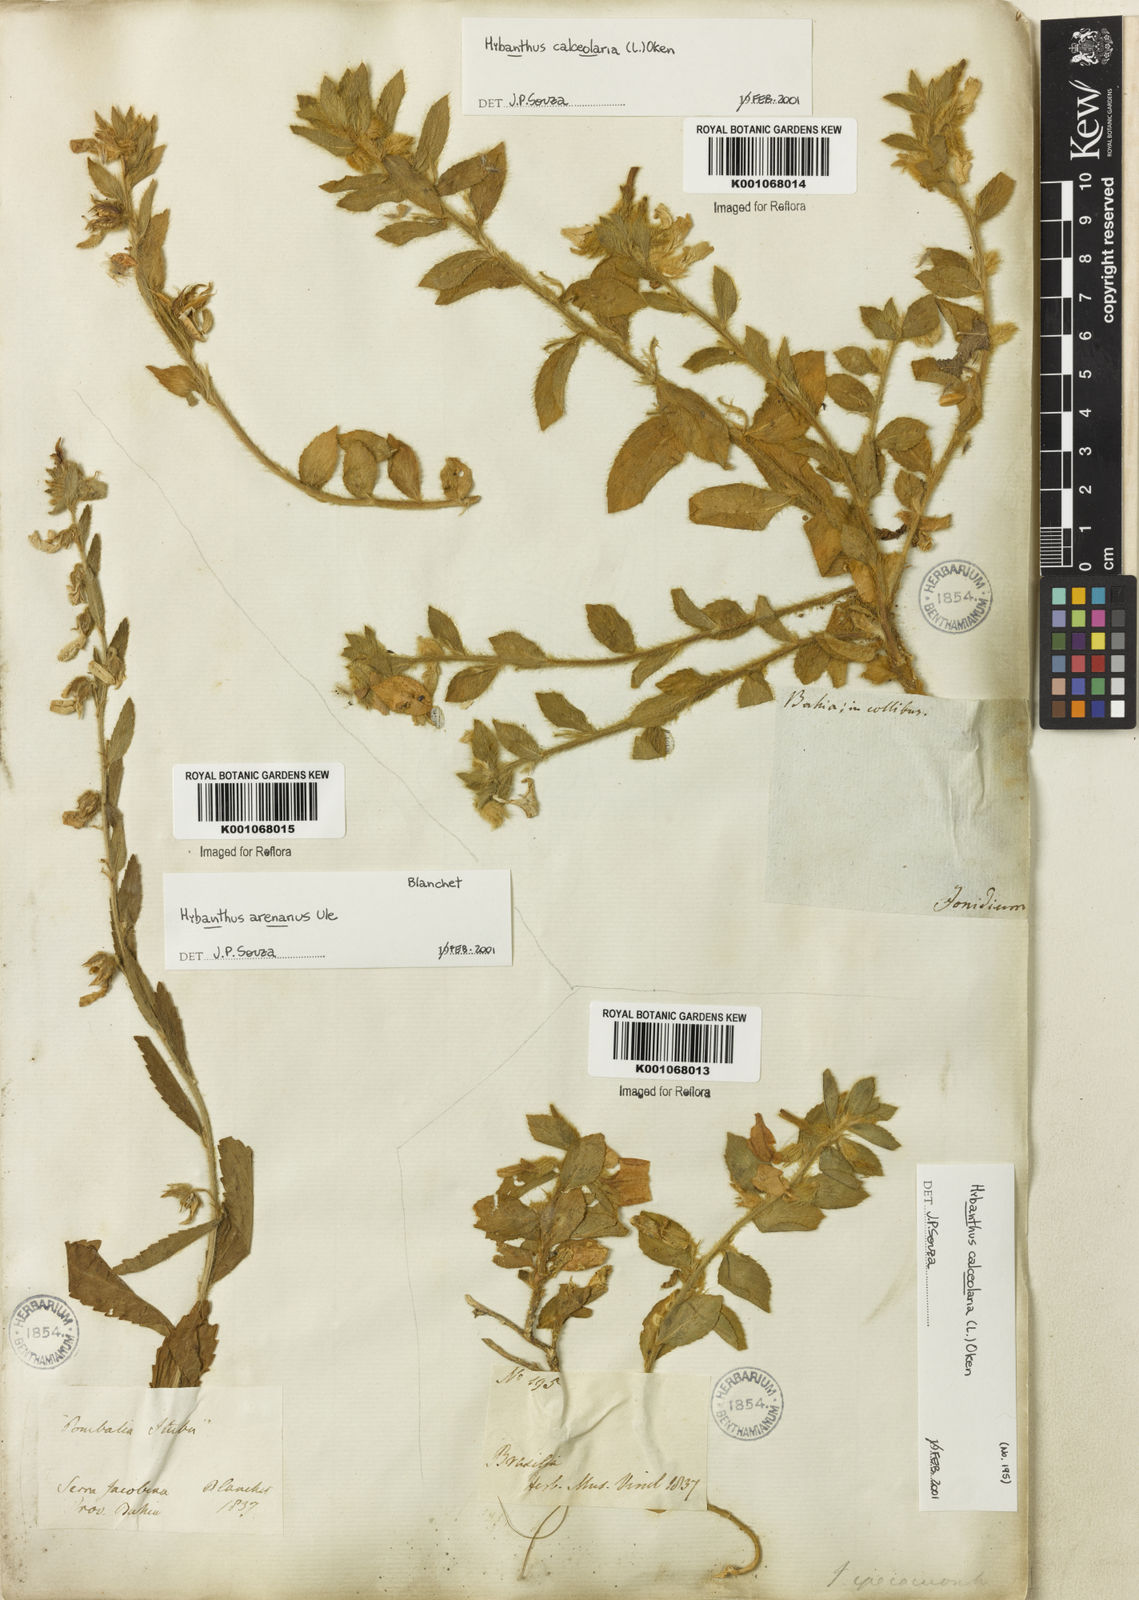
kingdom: Plantae
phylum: Tracheophyta
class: Magnoliopsida
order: Malpighiales
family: Violaceae
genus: Hybanthus
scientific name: Hybanthus
